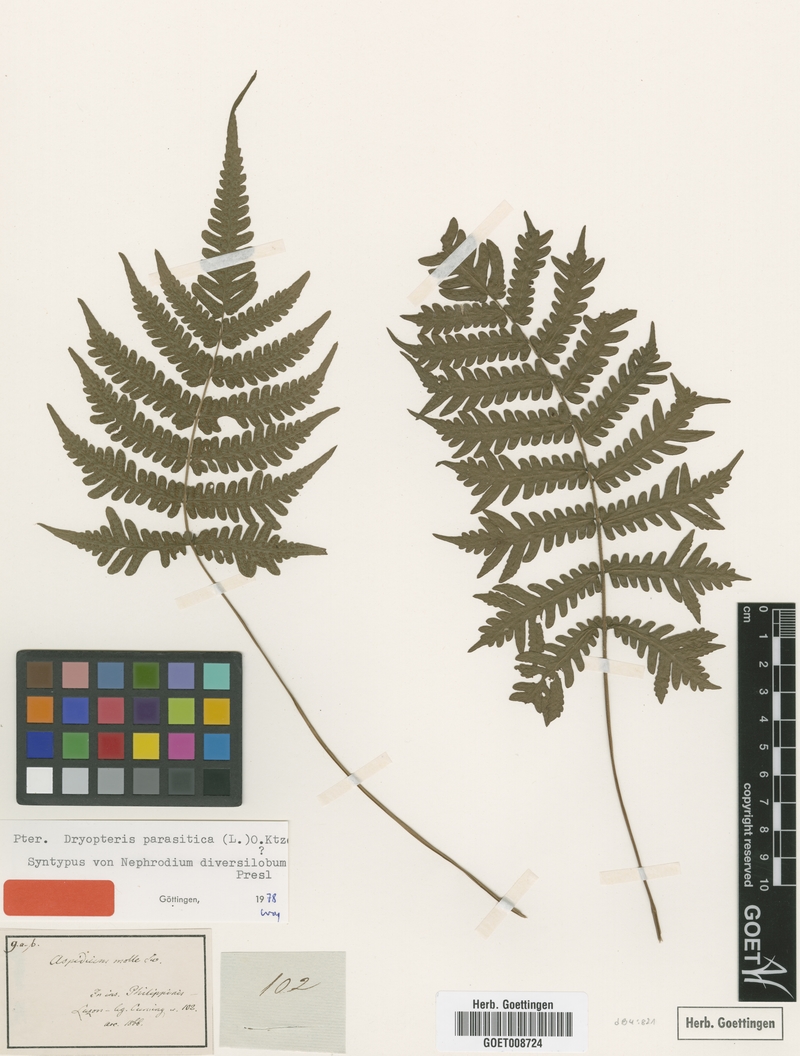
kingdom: Plantae
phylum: Tracheophyta
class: Polypodiopsida
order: Polypodiales
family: Thelypteridaceae
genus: Christella
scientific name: Christella parasitica
